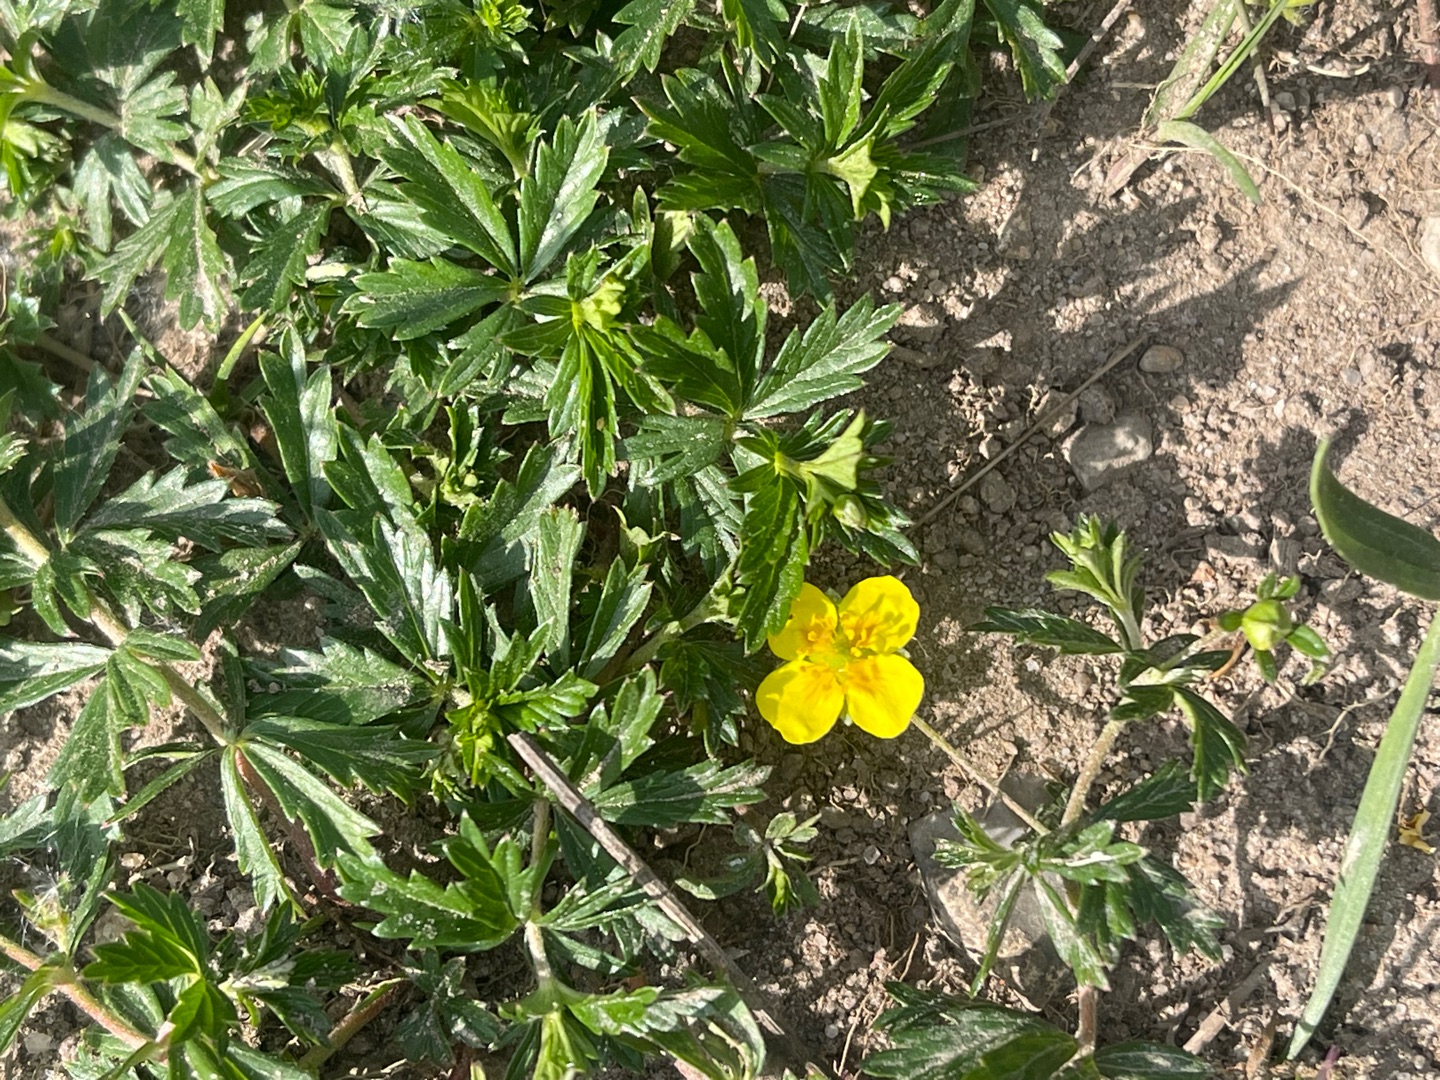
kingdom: Plantae
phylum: Tracheophyta
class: Magnoliopsida
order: Rosales
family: Rosaceae
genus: Potentilla
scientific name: Potentilla erecta
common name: Tormentil
